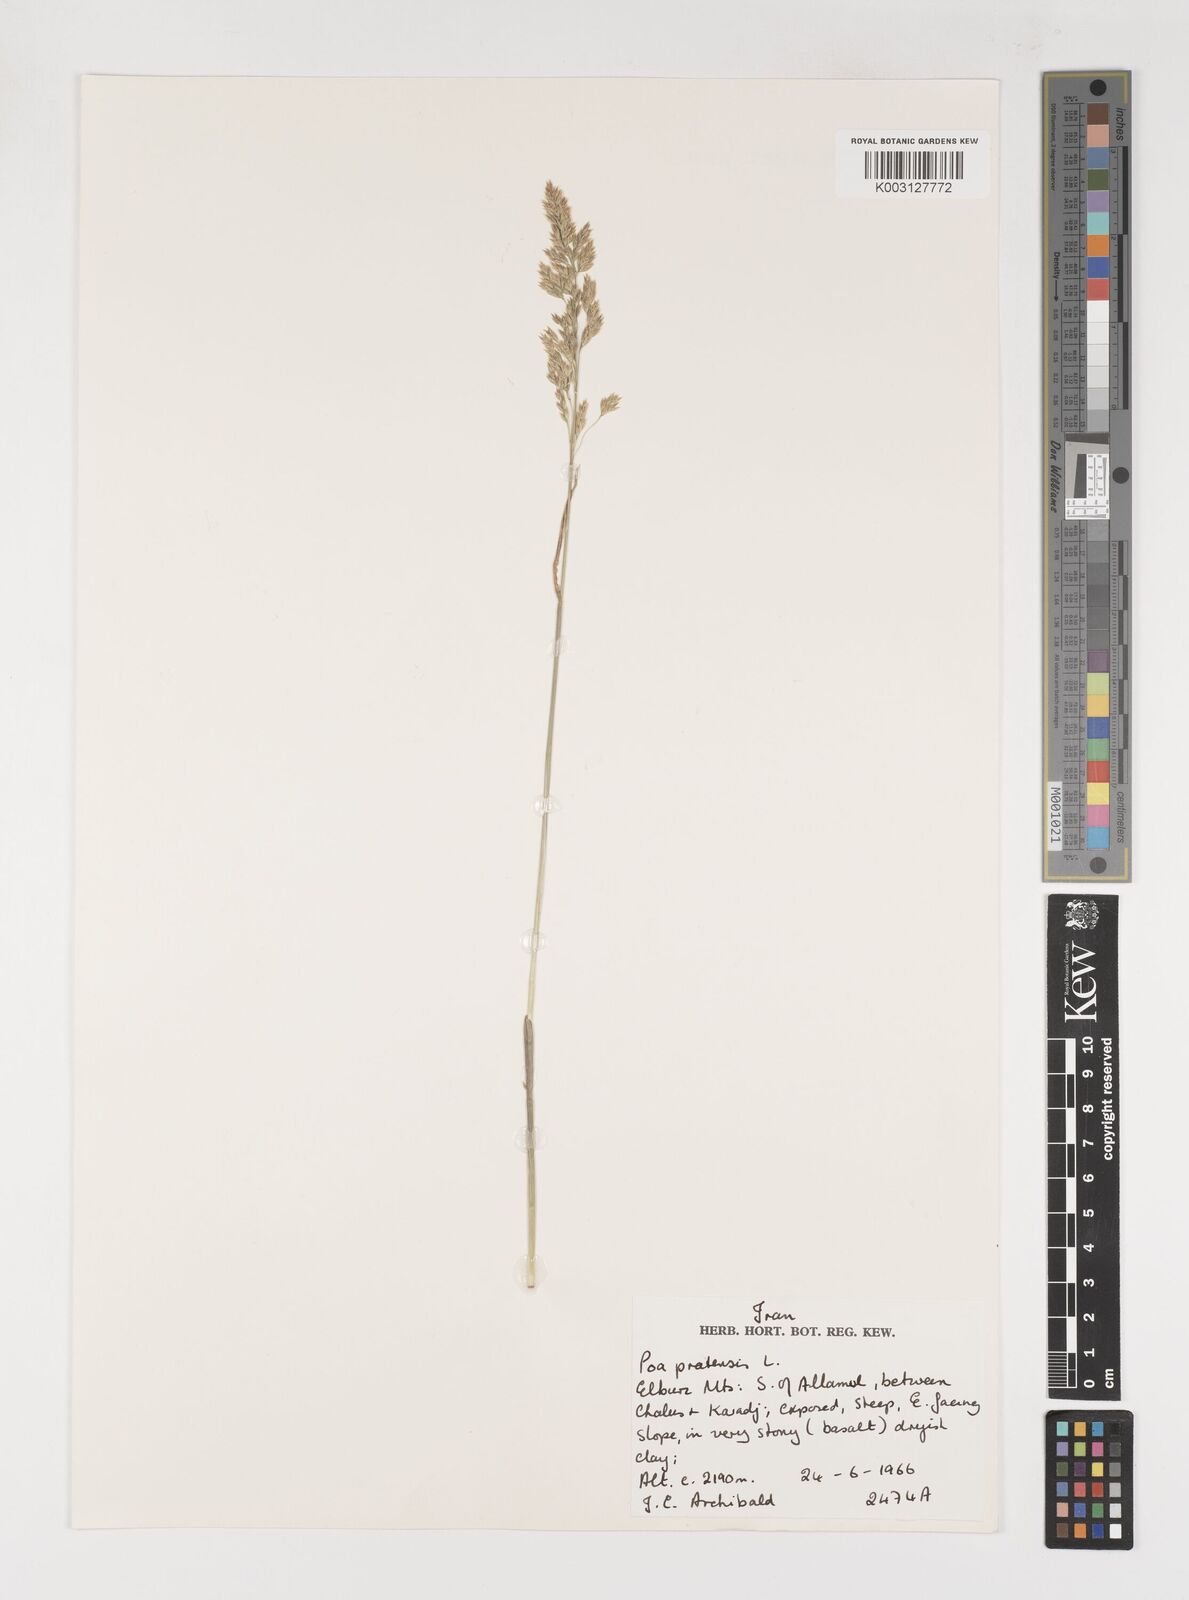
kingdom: Plantae
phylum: Tracheophyta
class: Liliopsida
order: Poales
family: Poaceae
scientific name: Poaceae
